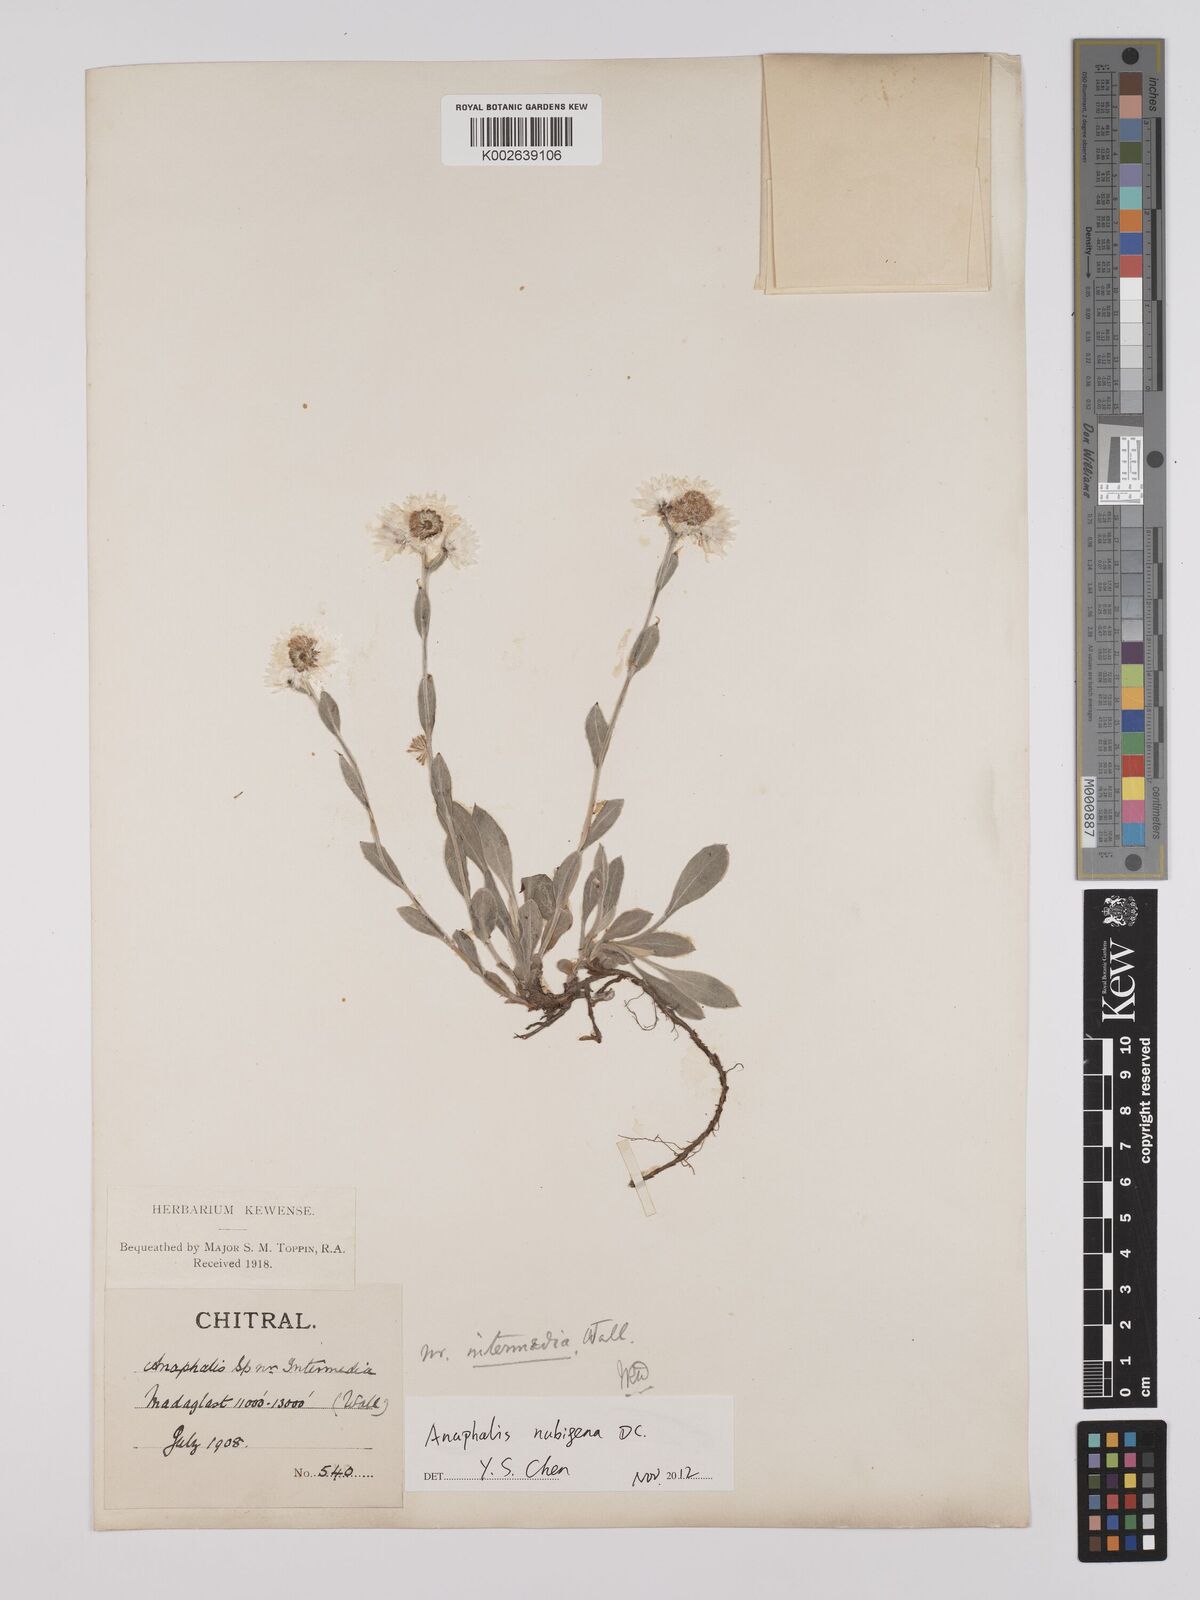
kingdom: Plantae
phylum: Tracheophyta
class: Magnoliopsida
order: Asterales
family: Asteraceae
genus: Anaphalis
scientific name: Anaphalis nepalensis
